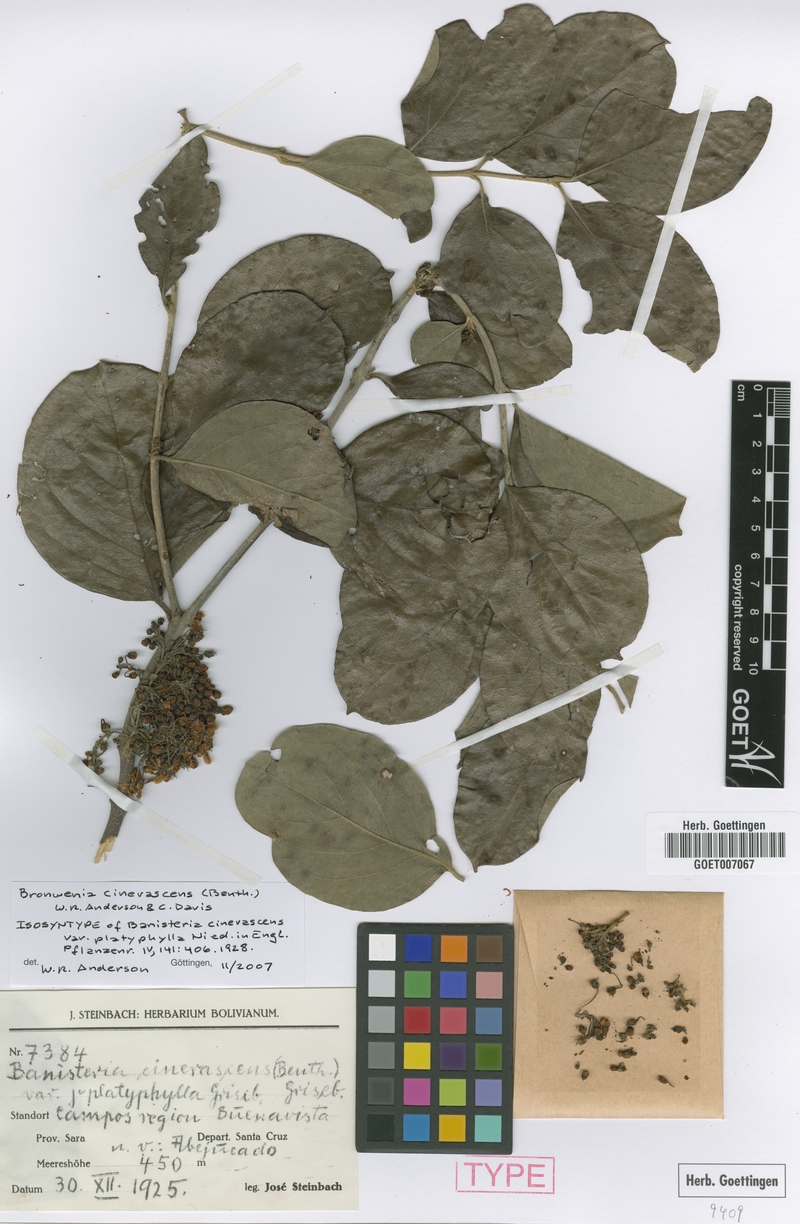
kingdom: Plantae
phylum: Tracheophyta
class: Magnoliopsida
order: Malpighiales
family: Malpighiaceae
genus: Bronwenia
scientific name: Bronwenia cinerascens
